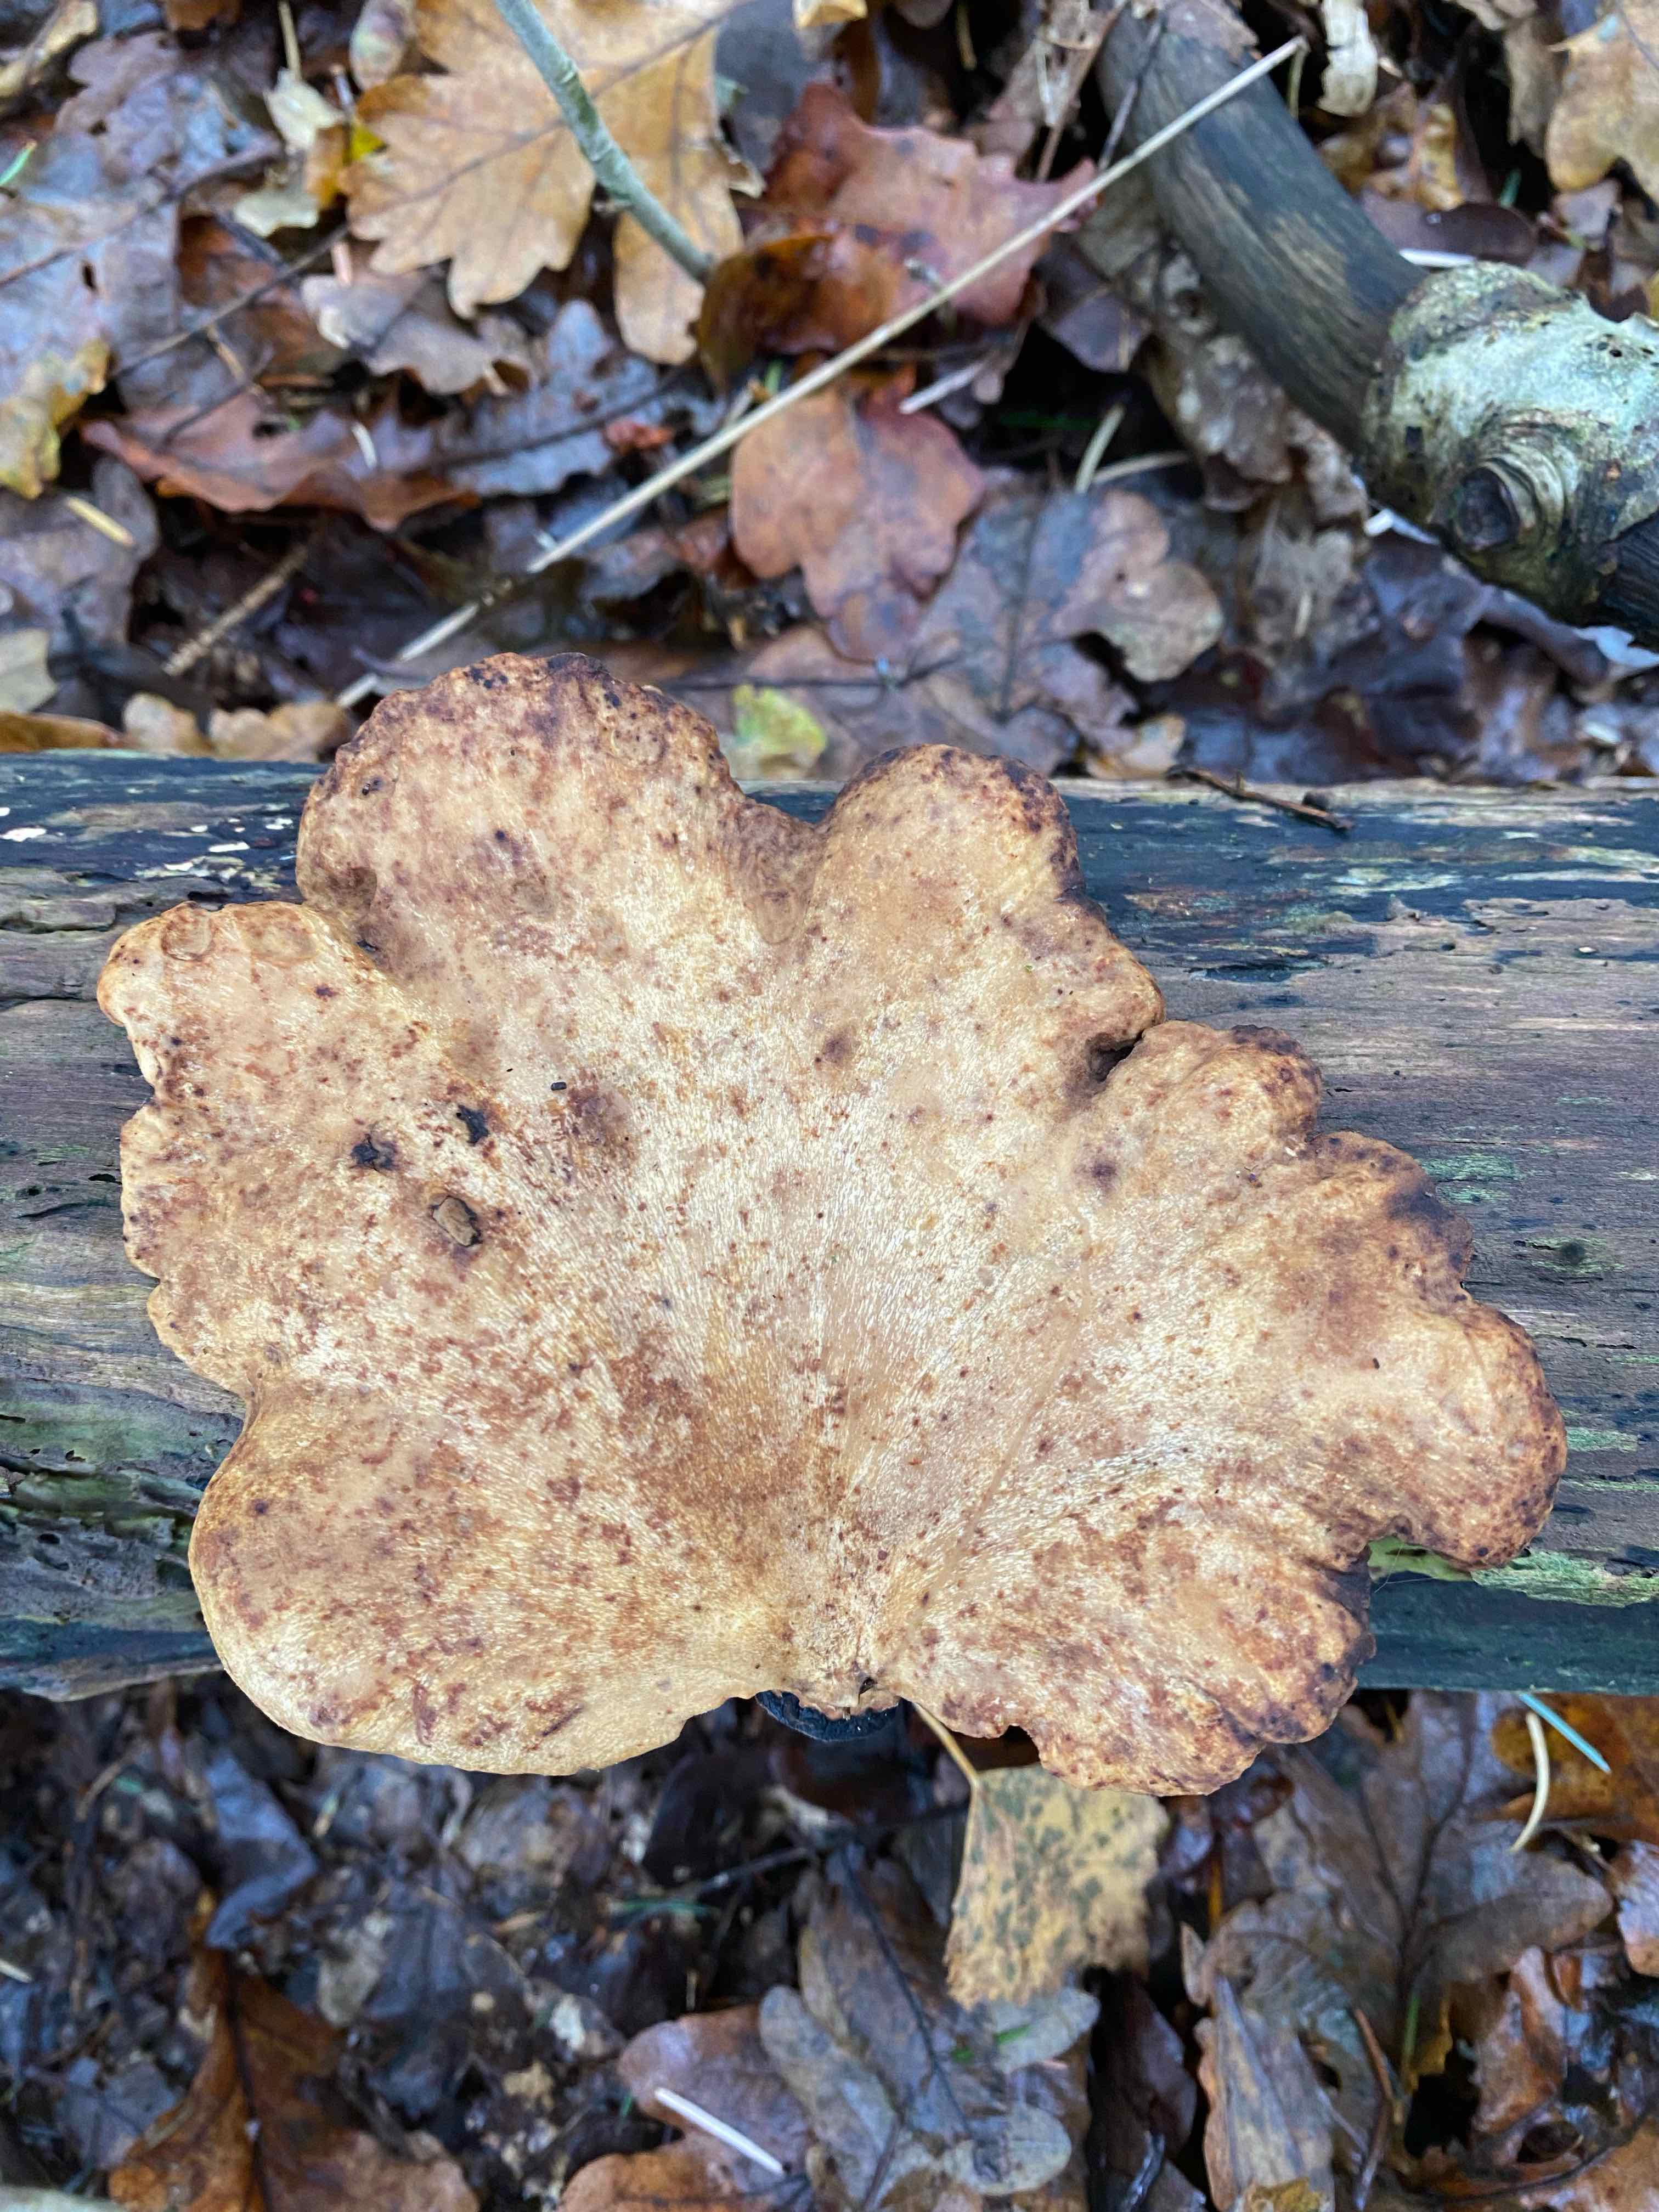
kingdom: Fungi
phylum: Basidiomycota
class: Agaricomycetes
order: Polyporales
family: Polyporaceae
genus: Cerioporus
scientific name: Cerioporus varius
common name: foranderlig stilkporesvamp
